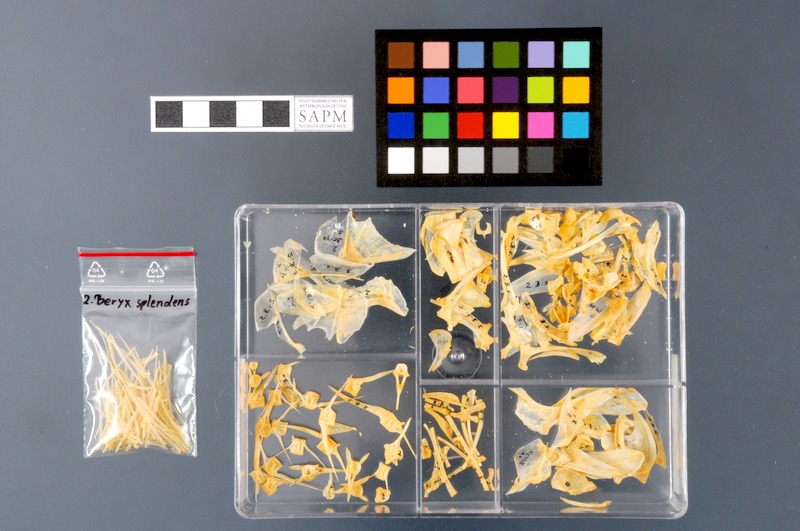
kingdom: Animalia
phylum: Chordata
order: Beryciformes
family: Berycidae
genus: Beryx
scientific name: Beryx splendens
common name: Lowe's beryx
